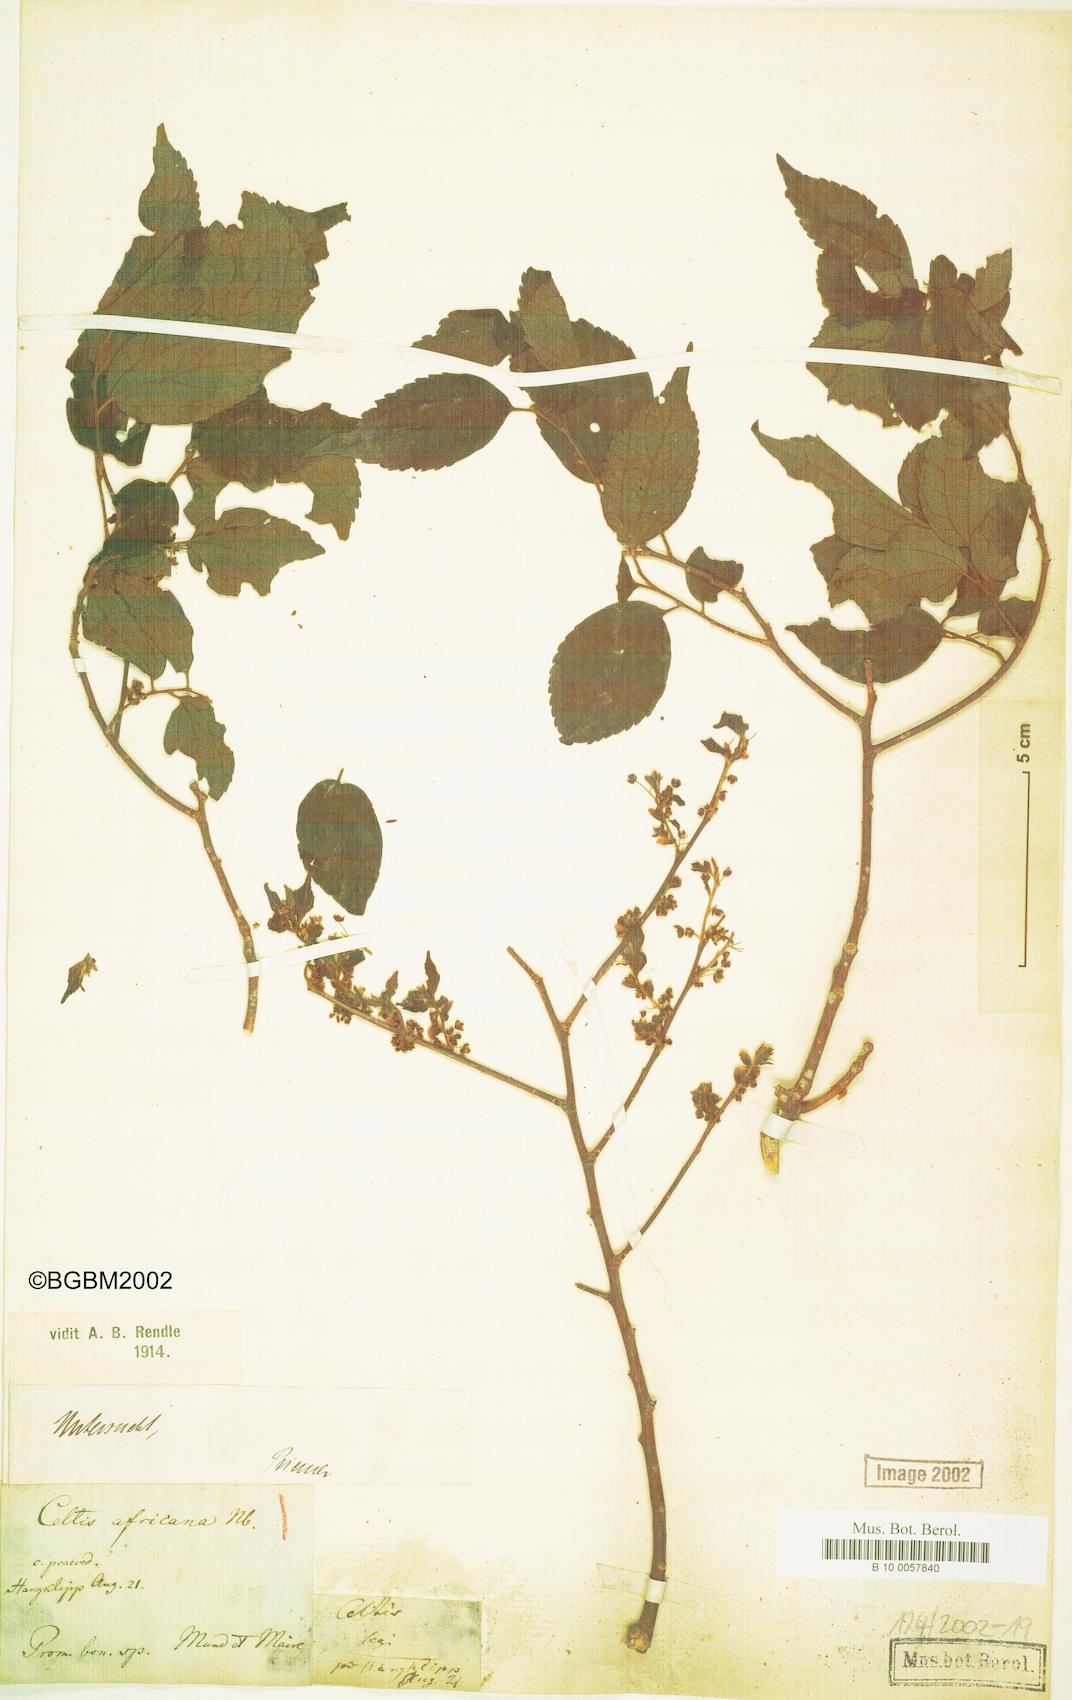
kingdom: Plantae
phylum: Tracheophyta
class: Magnoliopsida
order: Rosales
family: Cannabaceae
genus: Celtis
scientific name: Celtis africana
